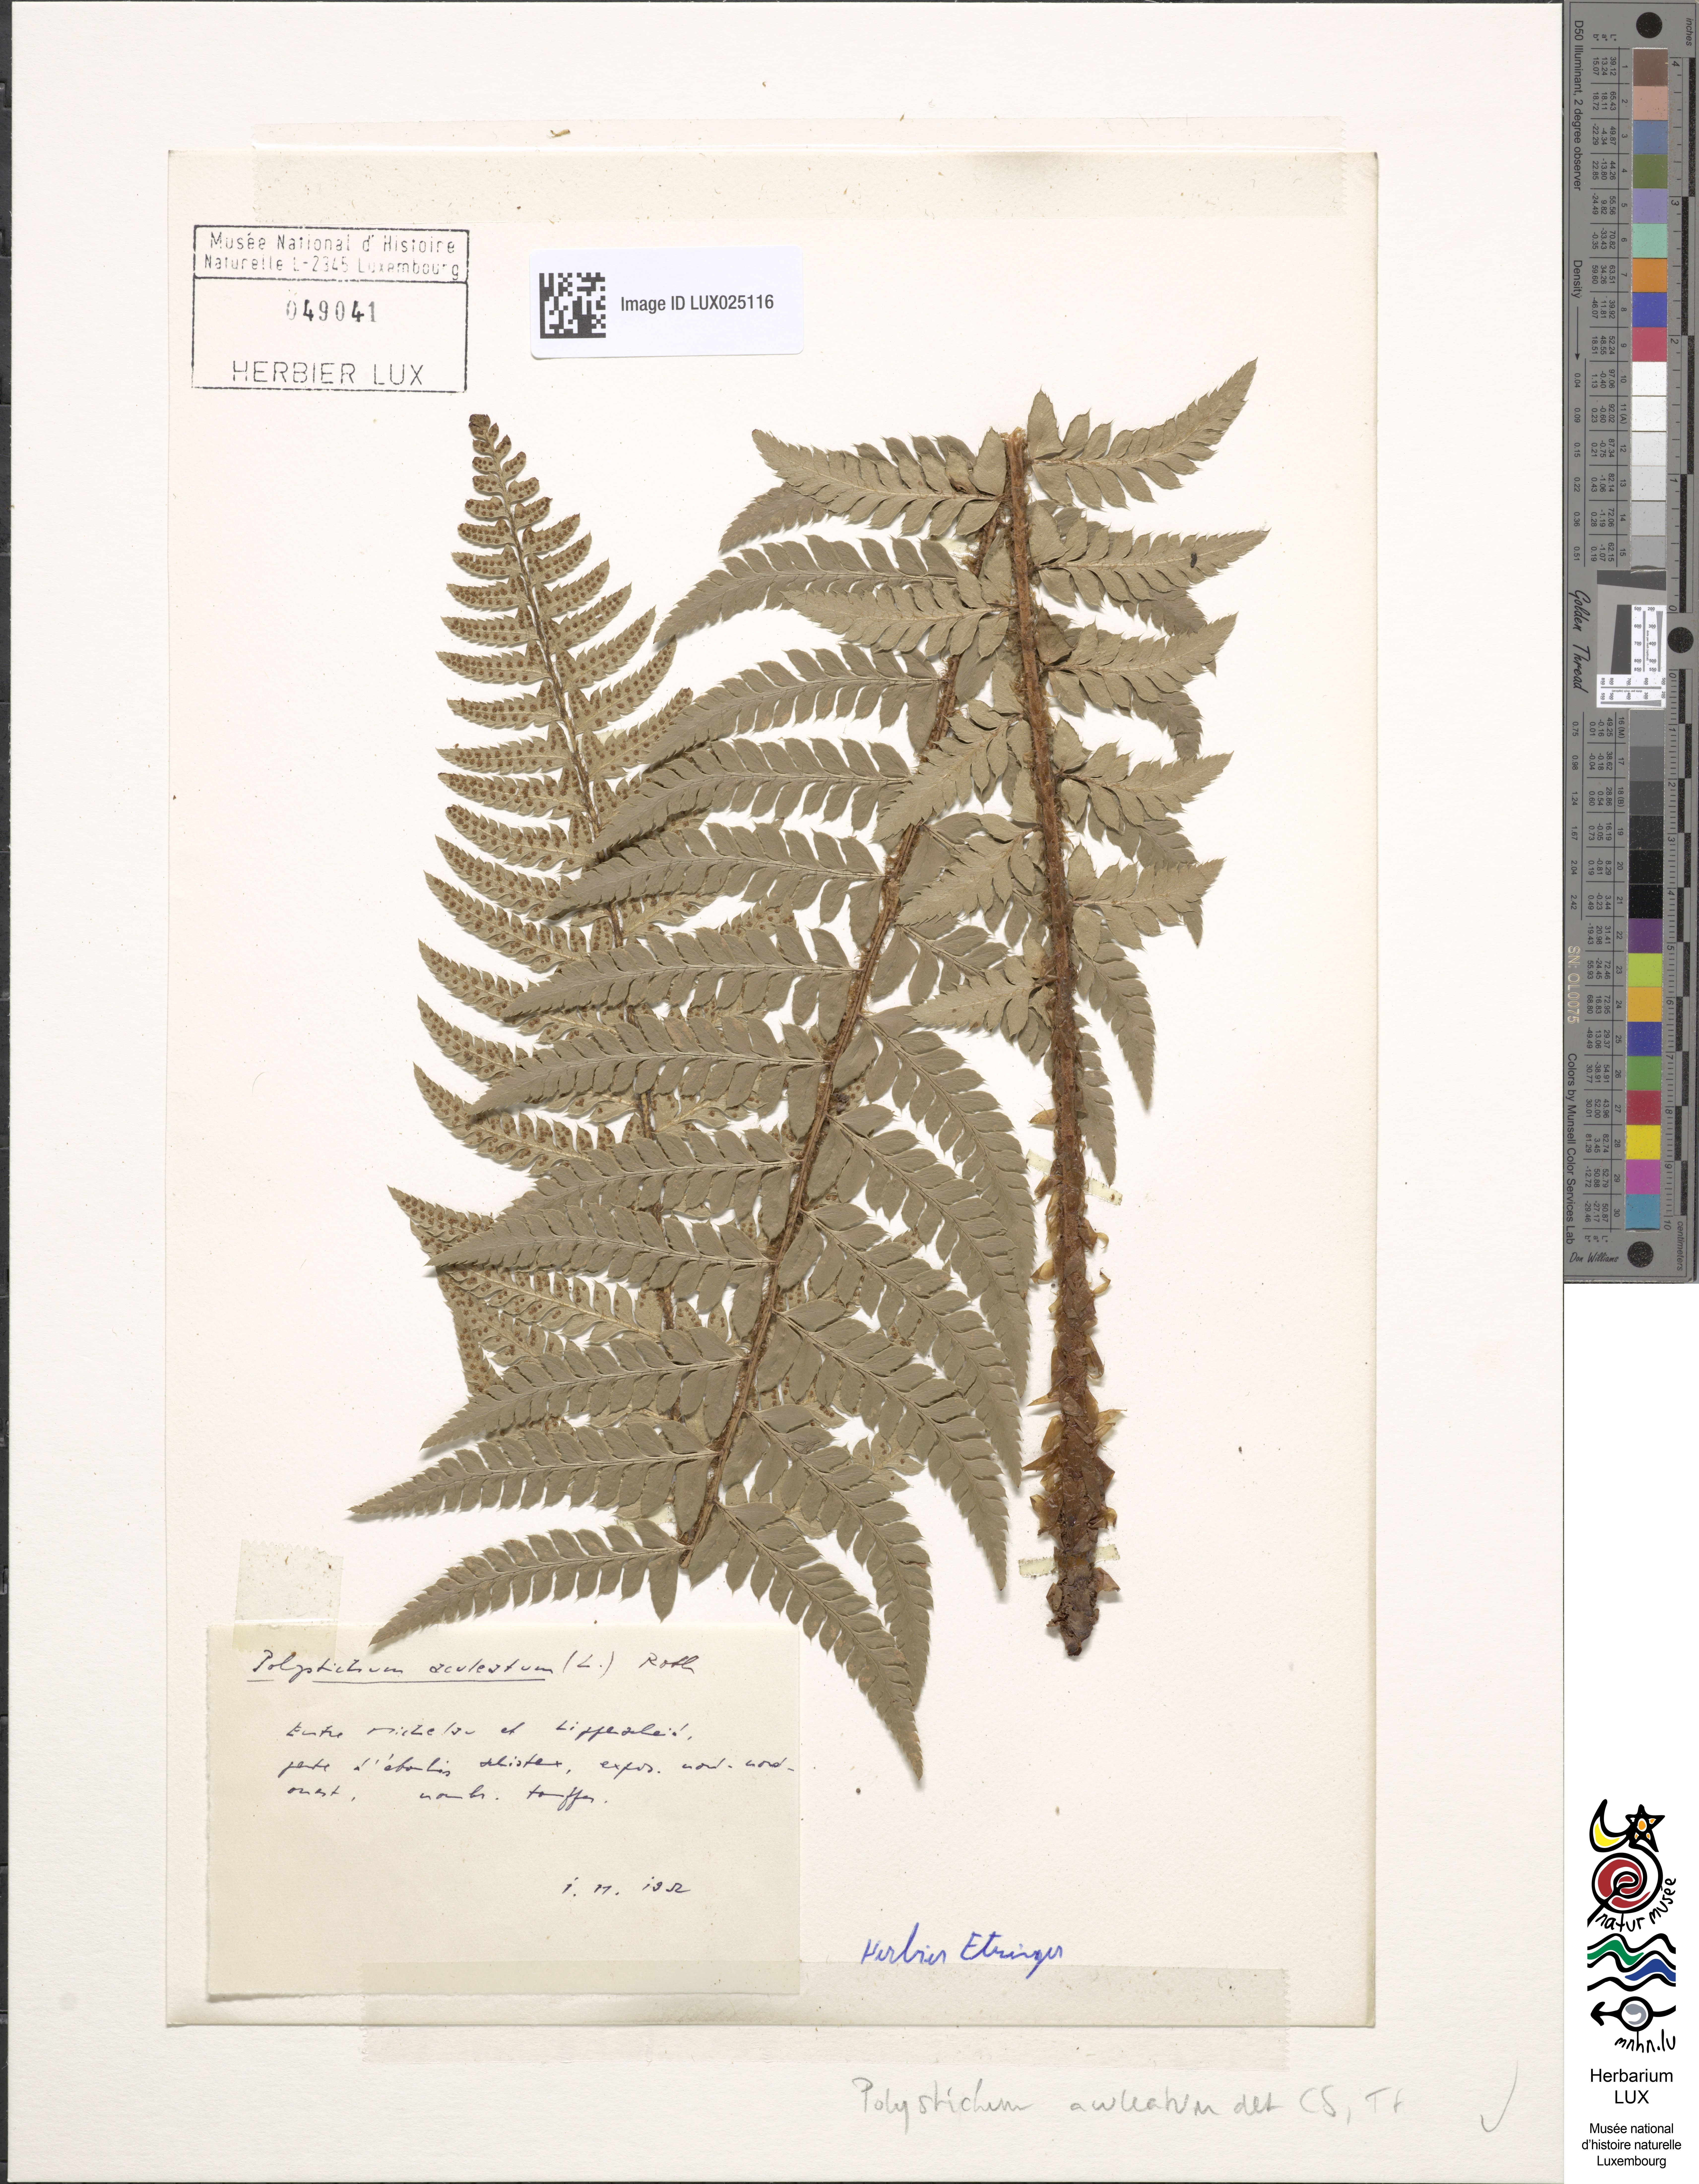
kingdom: Plantae
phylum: Tracheophyta
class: Polypodiopsida
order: Polypodiales
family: Dryopteridaceae
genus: Polystichum
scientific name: Polystichum aculeatum
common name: Hard shield-fern
